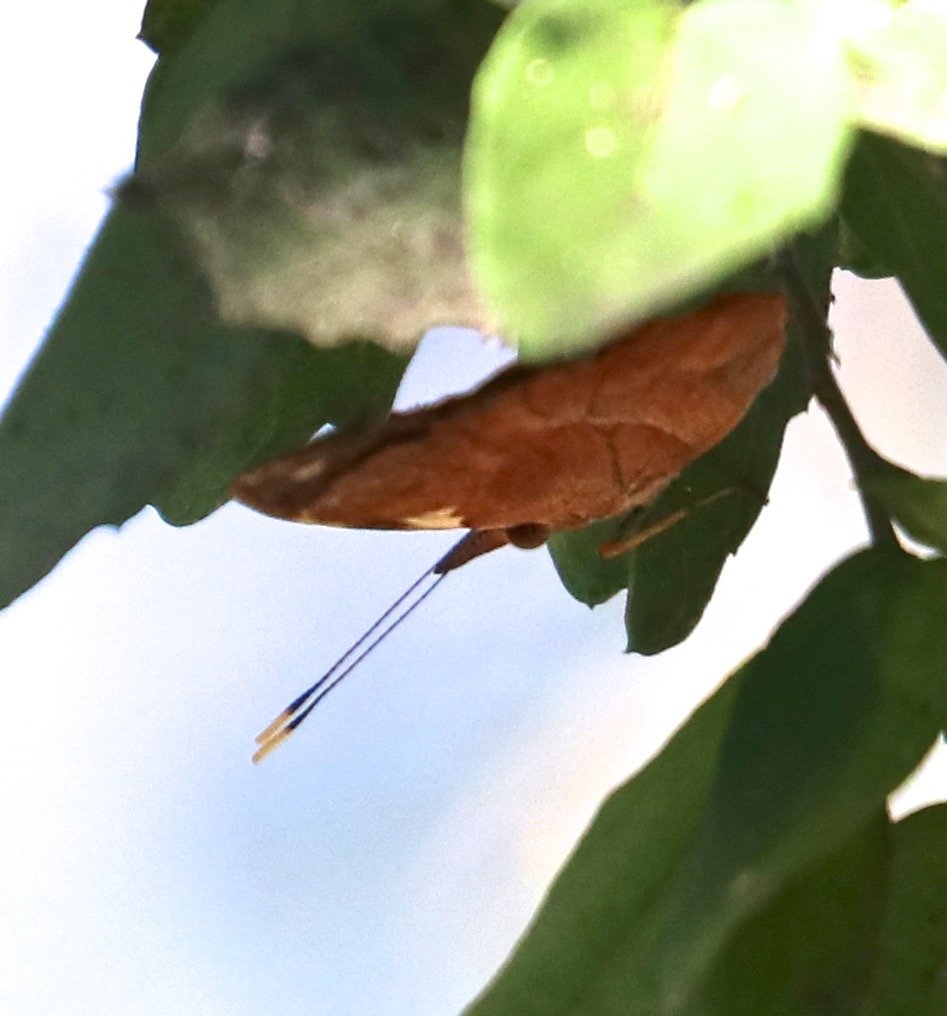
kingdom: Animalia
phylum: Arthropoda
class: Insecta
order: Lepidoptera
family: Nymphalidae
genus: Epiphile
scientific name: Epiphile adrasta
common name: Common Banner
